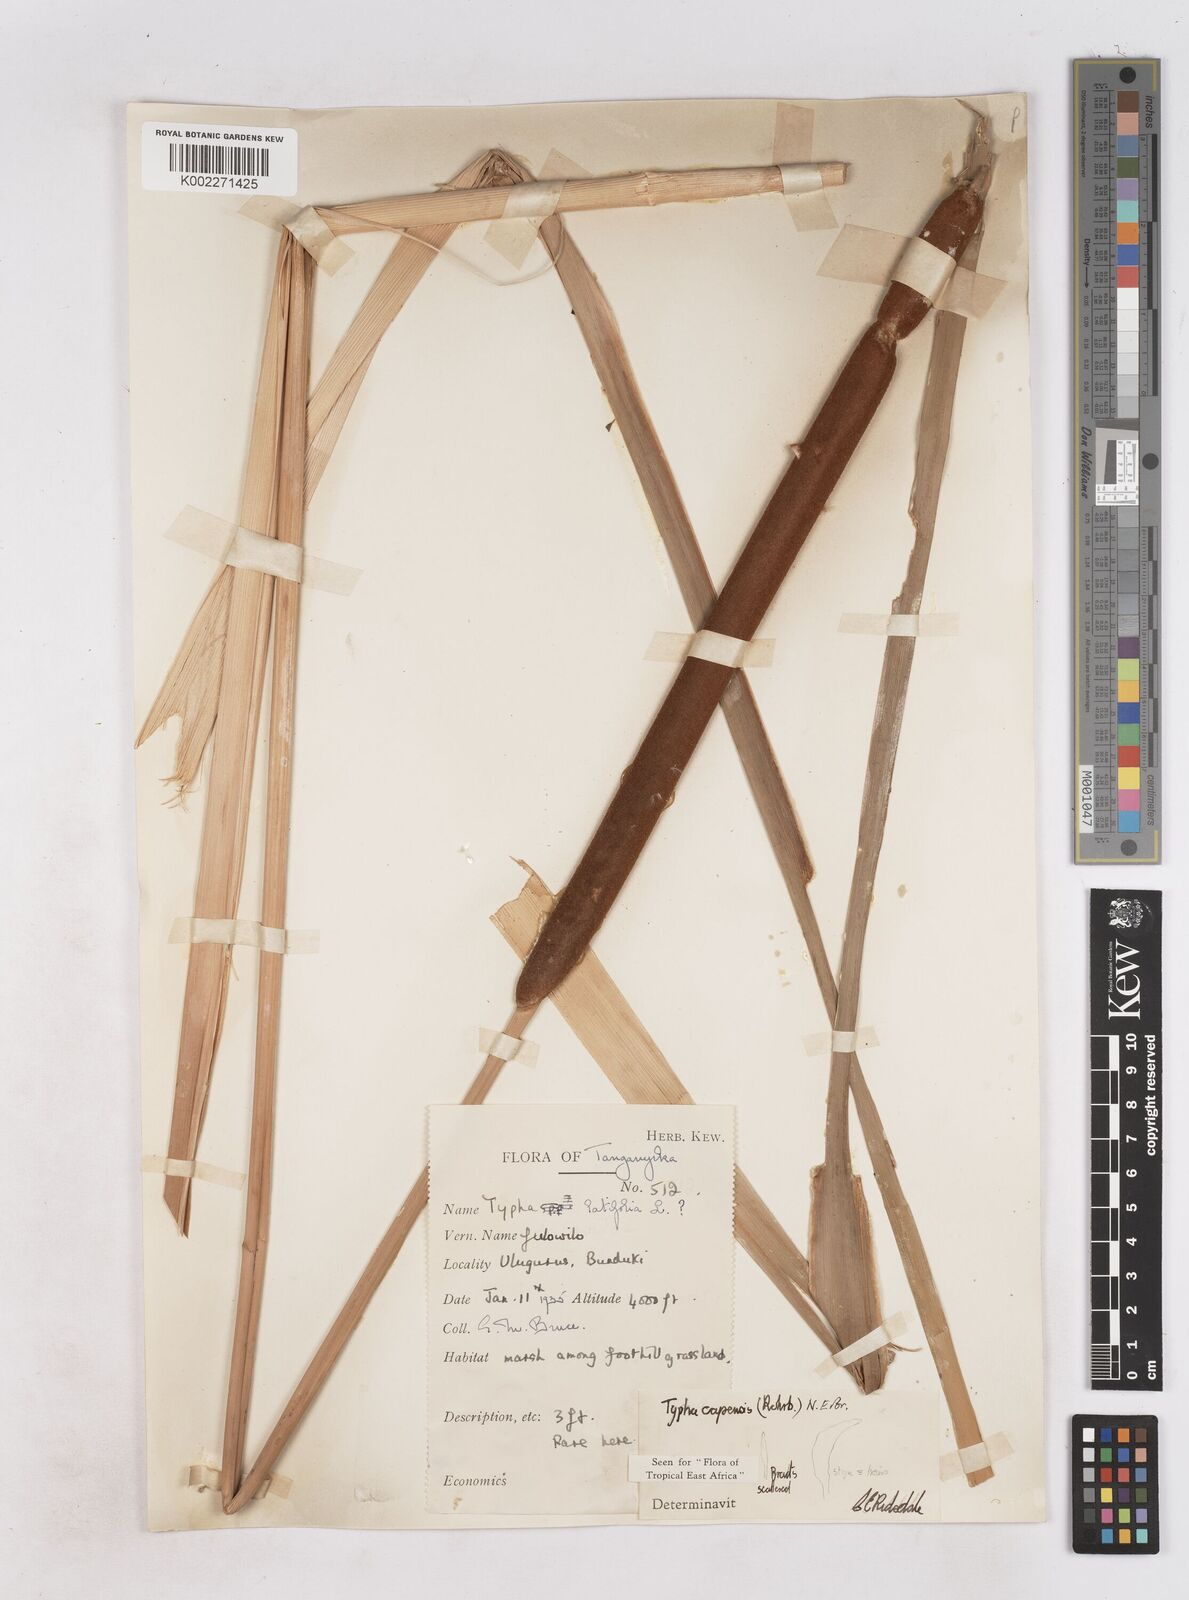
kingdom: Plantae
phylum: Tracheophyta
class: Liliopsida
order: Poales
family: Typhaceae
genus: Typha
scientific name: Typha capensis
